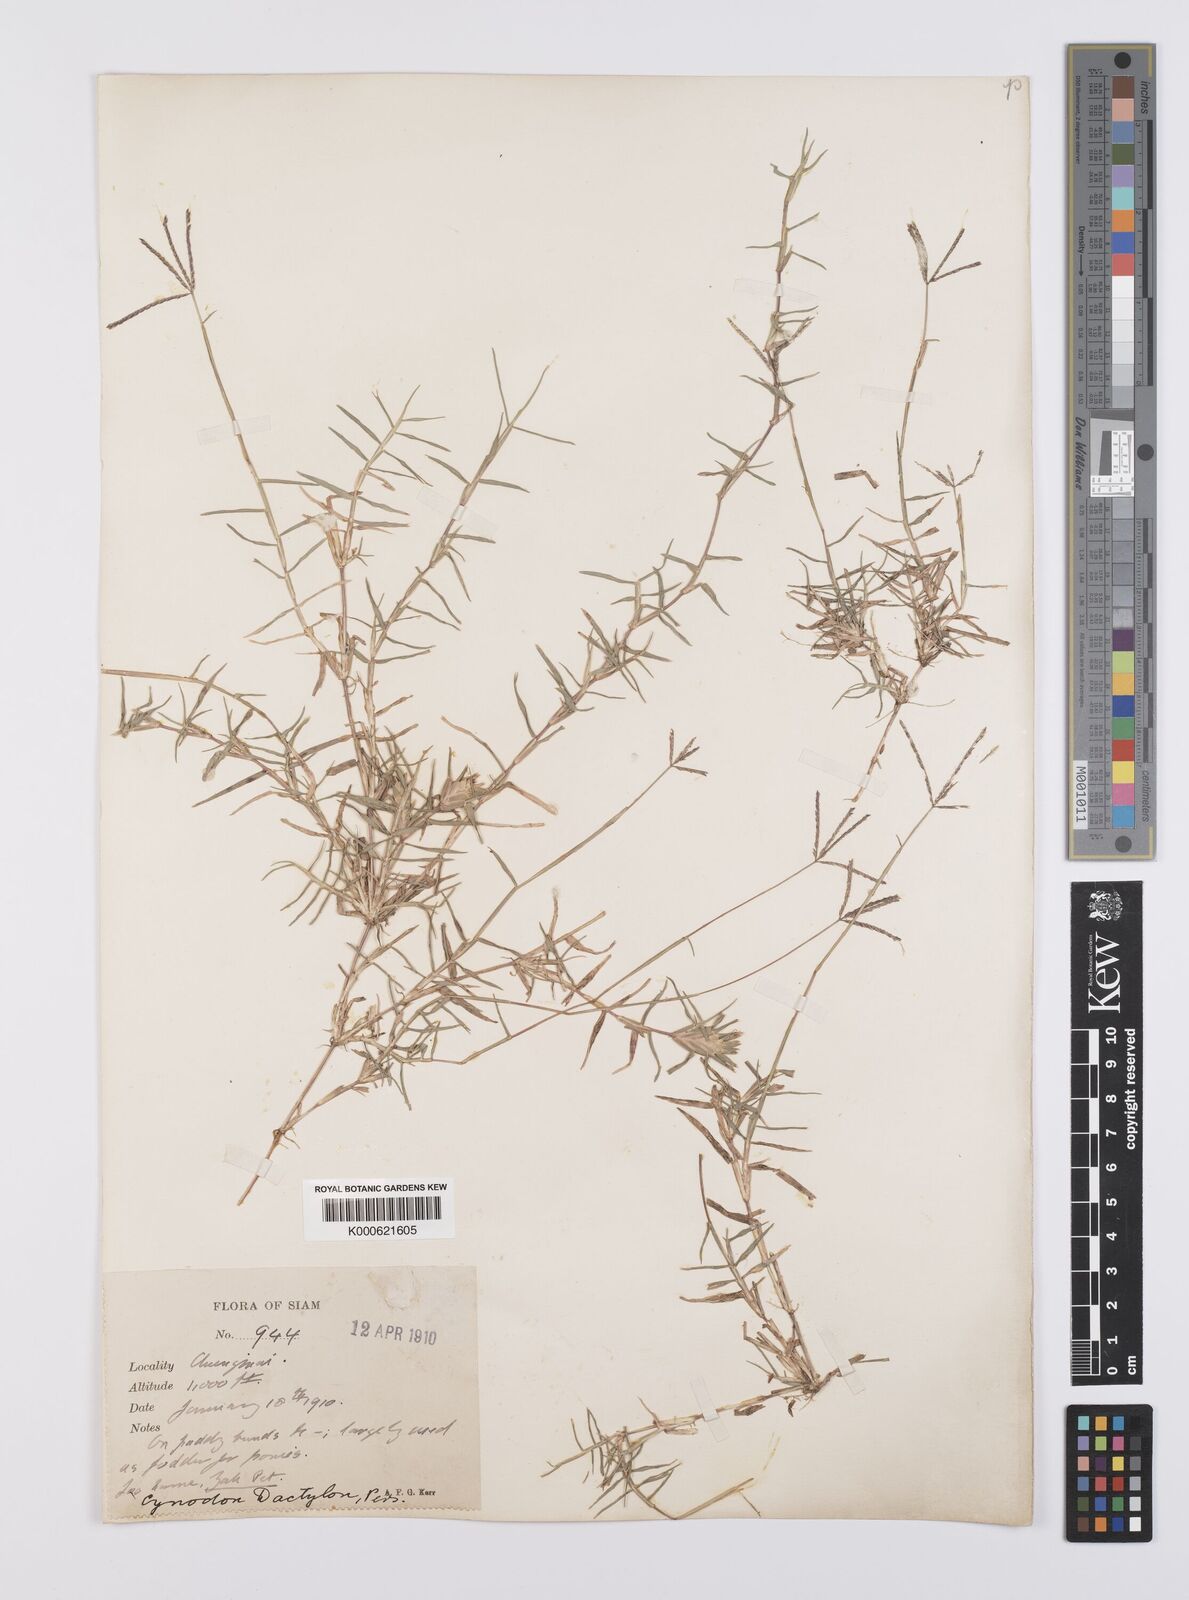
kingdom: Plantae
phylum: Tracheophyta
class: Liliopsida
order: Poales
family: Poaceae
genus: Cynodon
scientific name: Cynodon dactylon
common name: Bermuda grass
